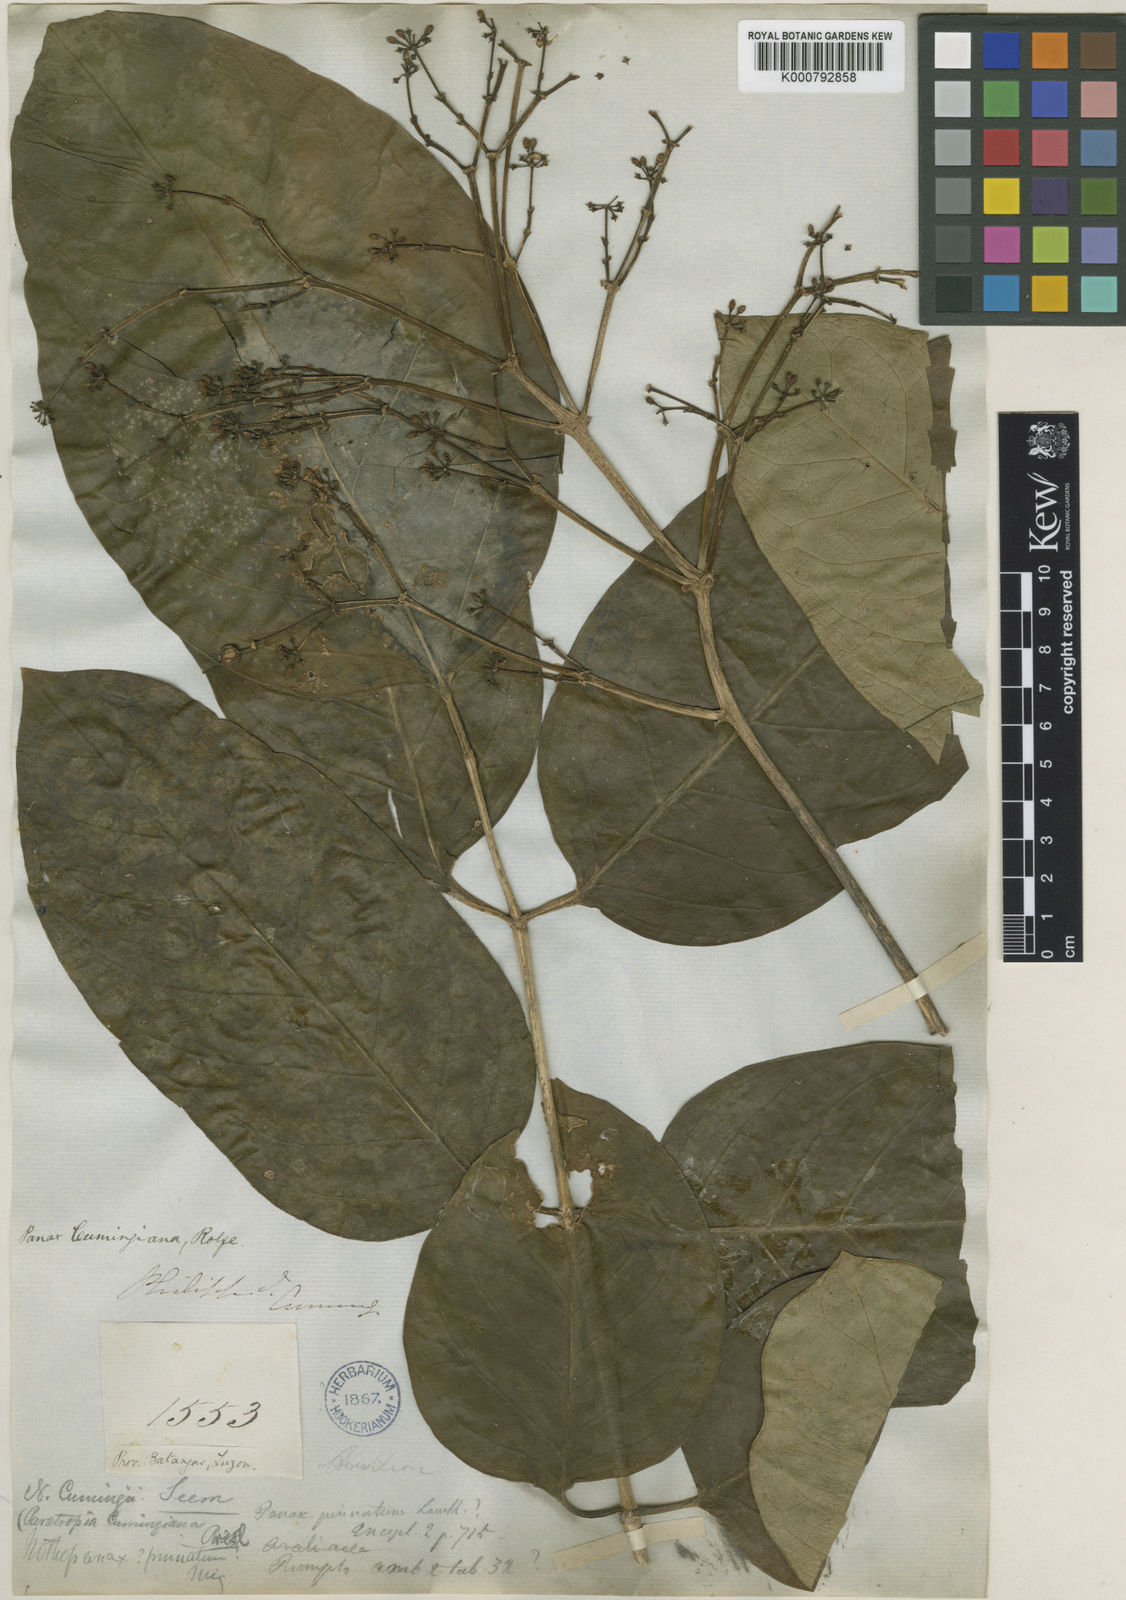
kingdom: Plantae
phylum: Tracheophyta
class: Magnoliopsida
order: Apiales
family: Araliaceae
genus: Polyscias
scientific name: Polyscias cumingiana
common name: Fern-leaf aralia
